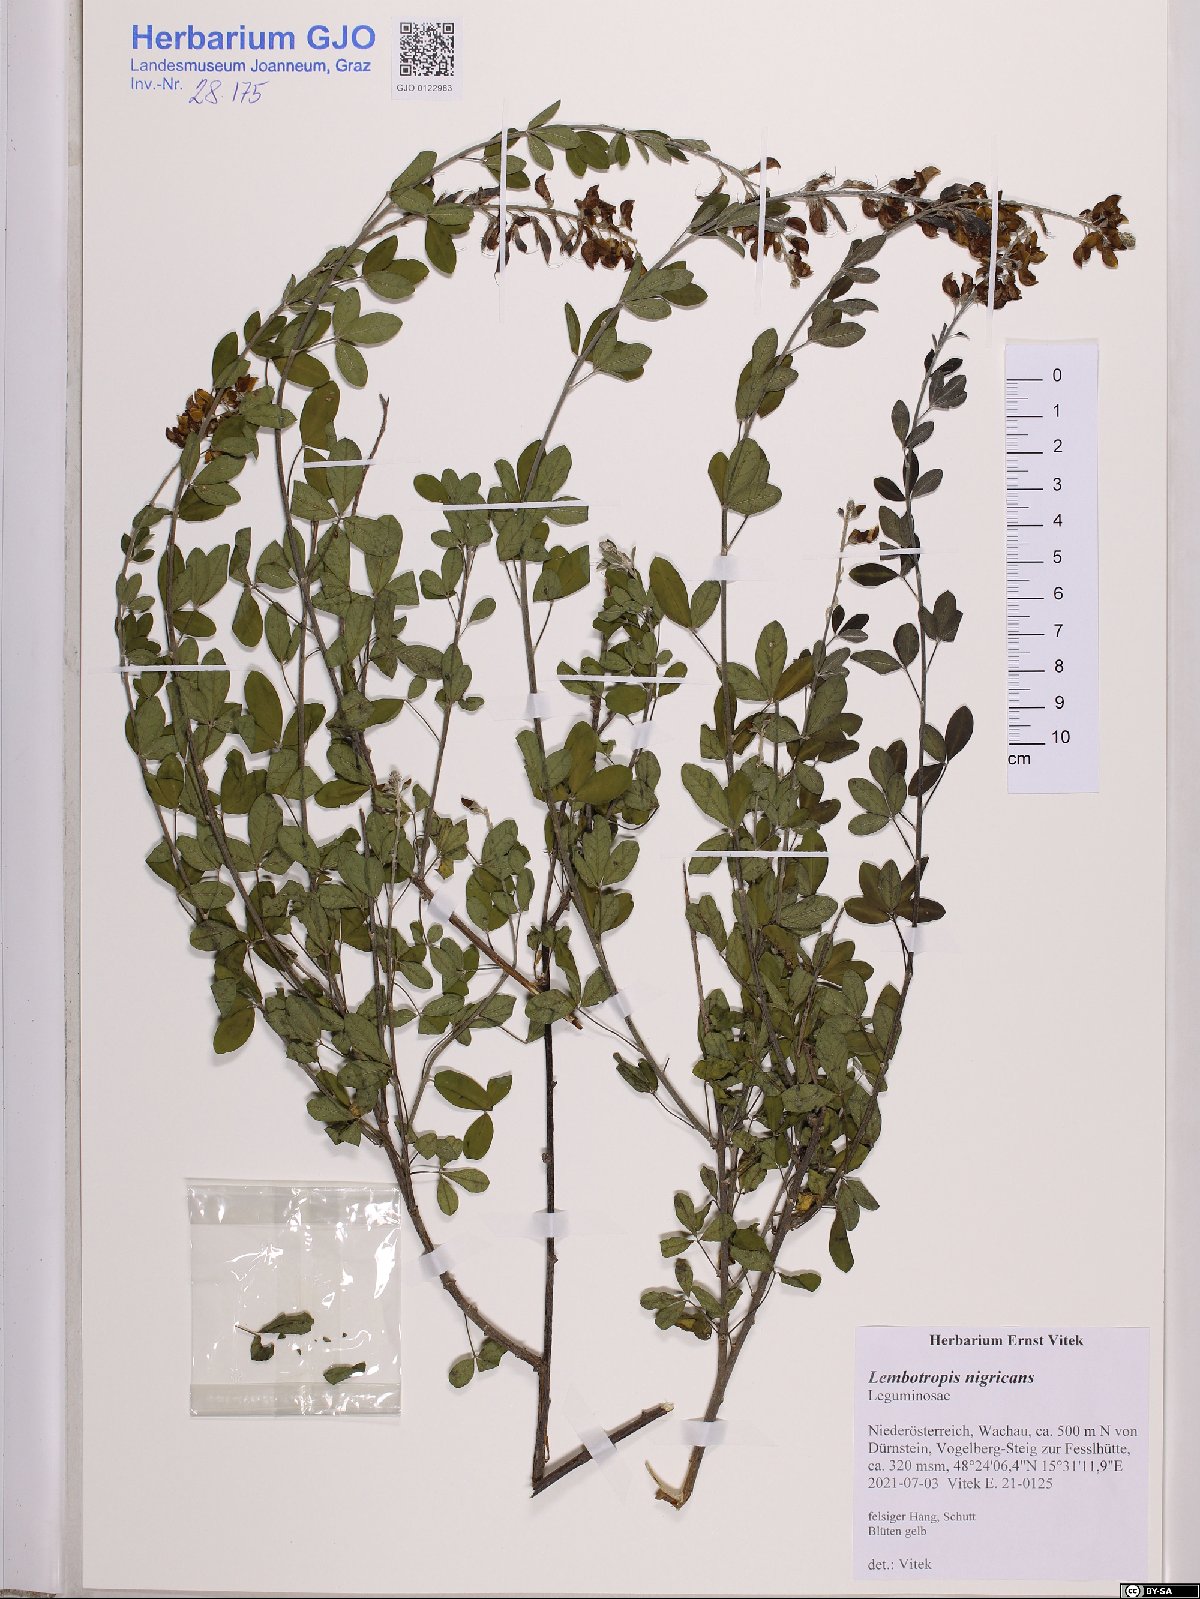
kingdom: Plantae
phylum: Tracheophyta
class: Magnoliopsida
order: Fabales
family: Fabaceae
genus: Cytisus
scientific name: Cytisus nigricans
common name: Black broom
